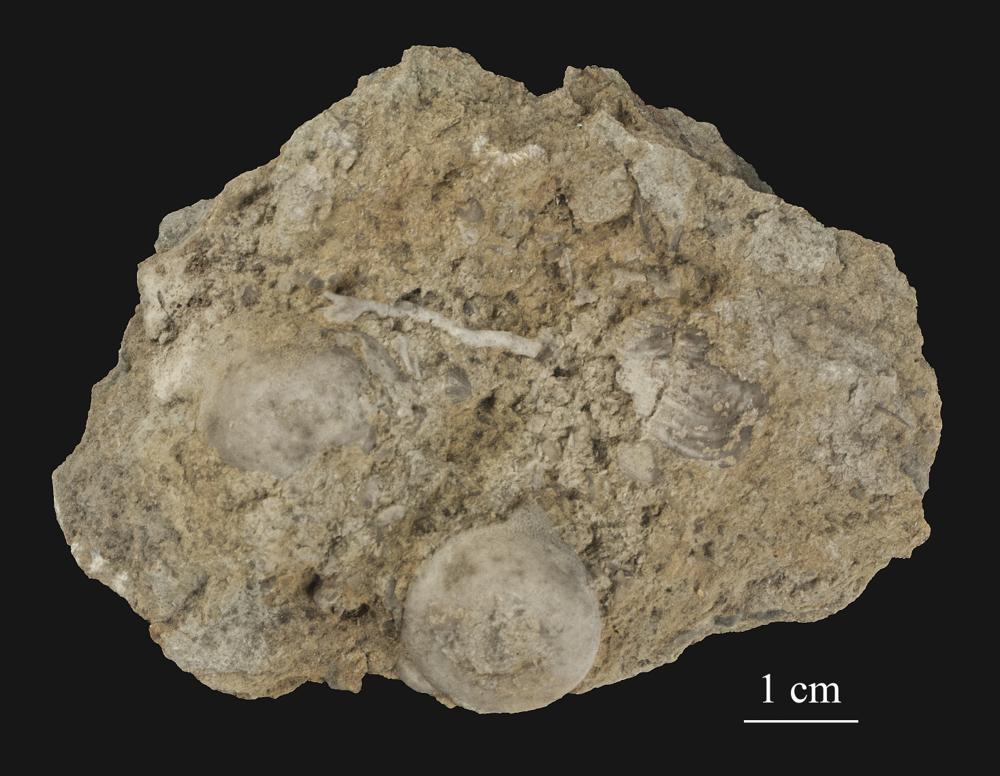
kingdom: Animalia
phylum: Bryozoa
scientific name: Bryozoa
